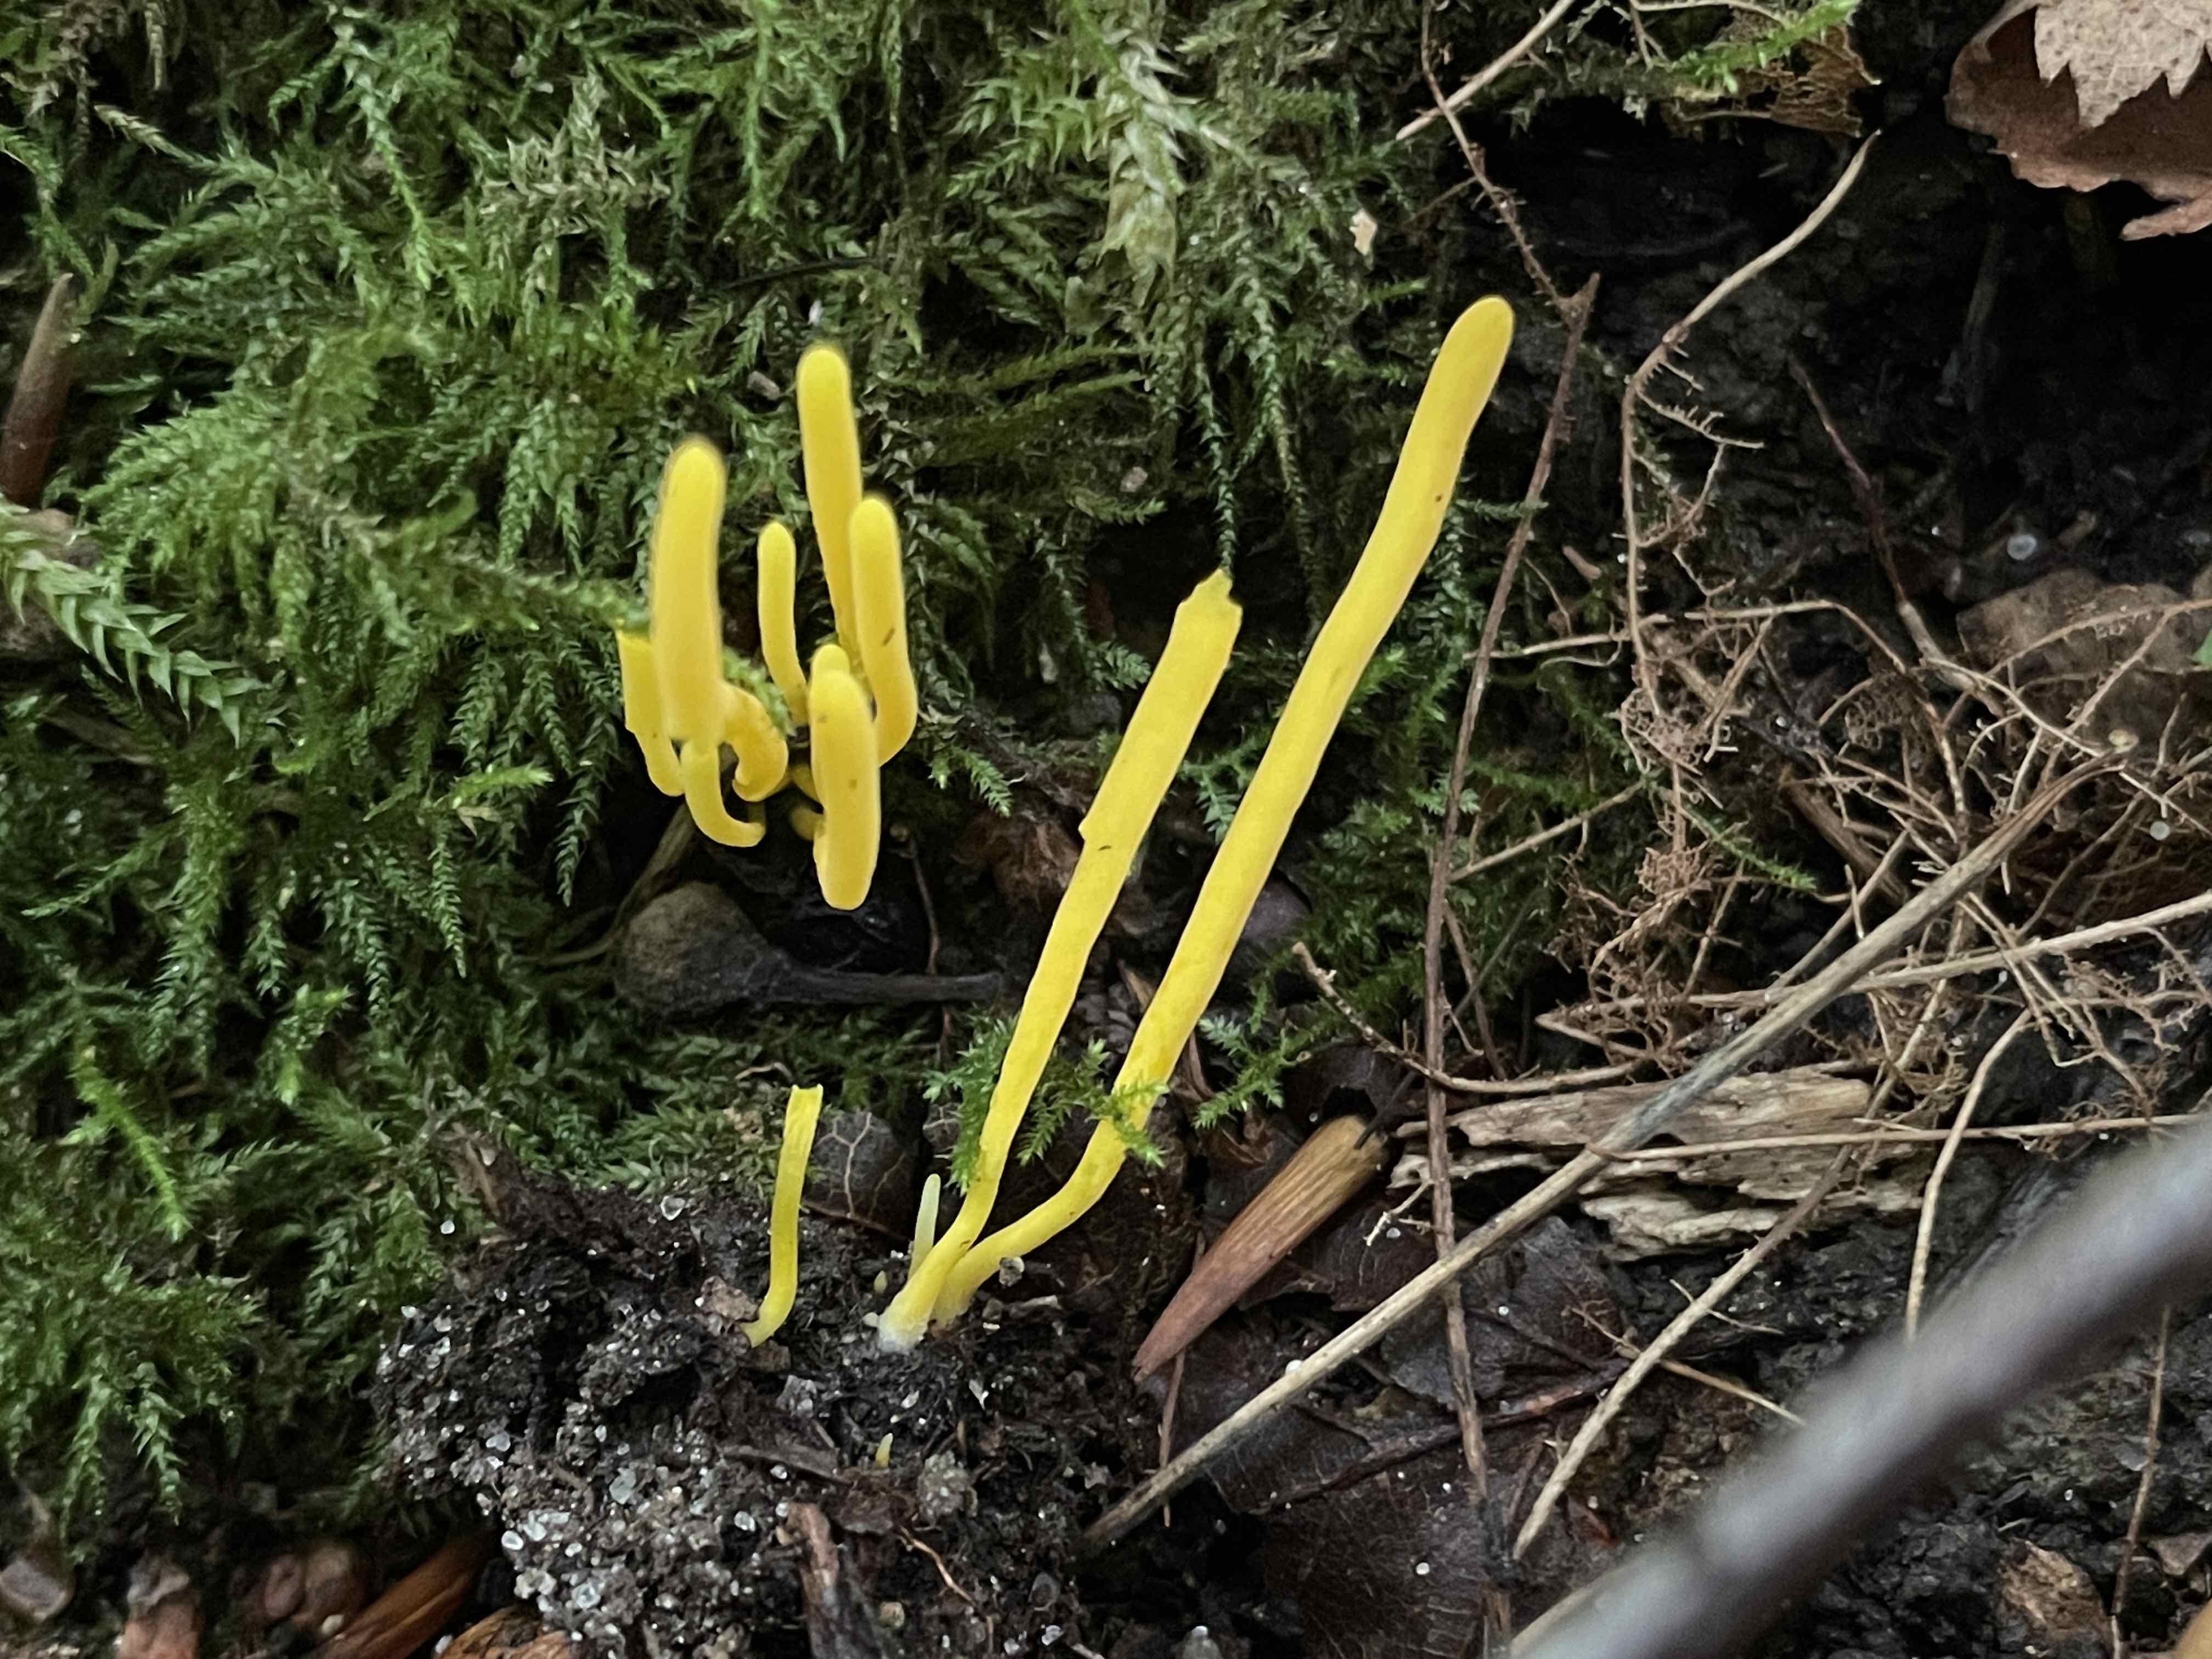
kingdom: Fungi
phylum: Basidiomycota
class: Agaricomycetes
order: Agaricales
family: Clavariaceae
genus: Clavulinopsis
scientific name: Clavulinopsis helvola
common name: orangegul køllesvamp
